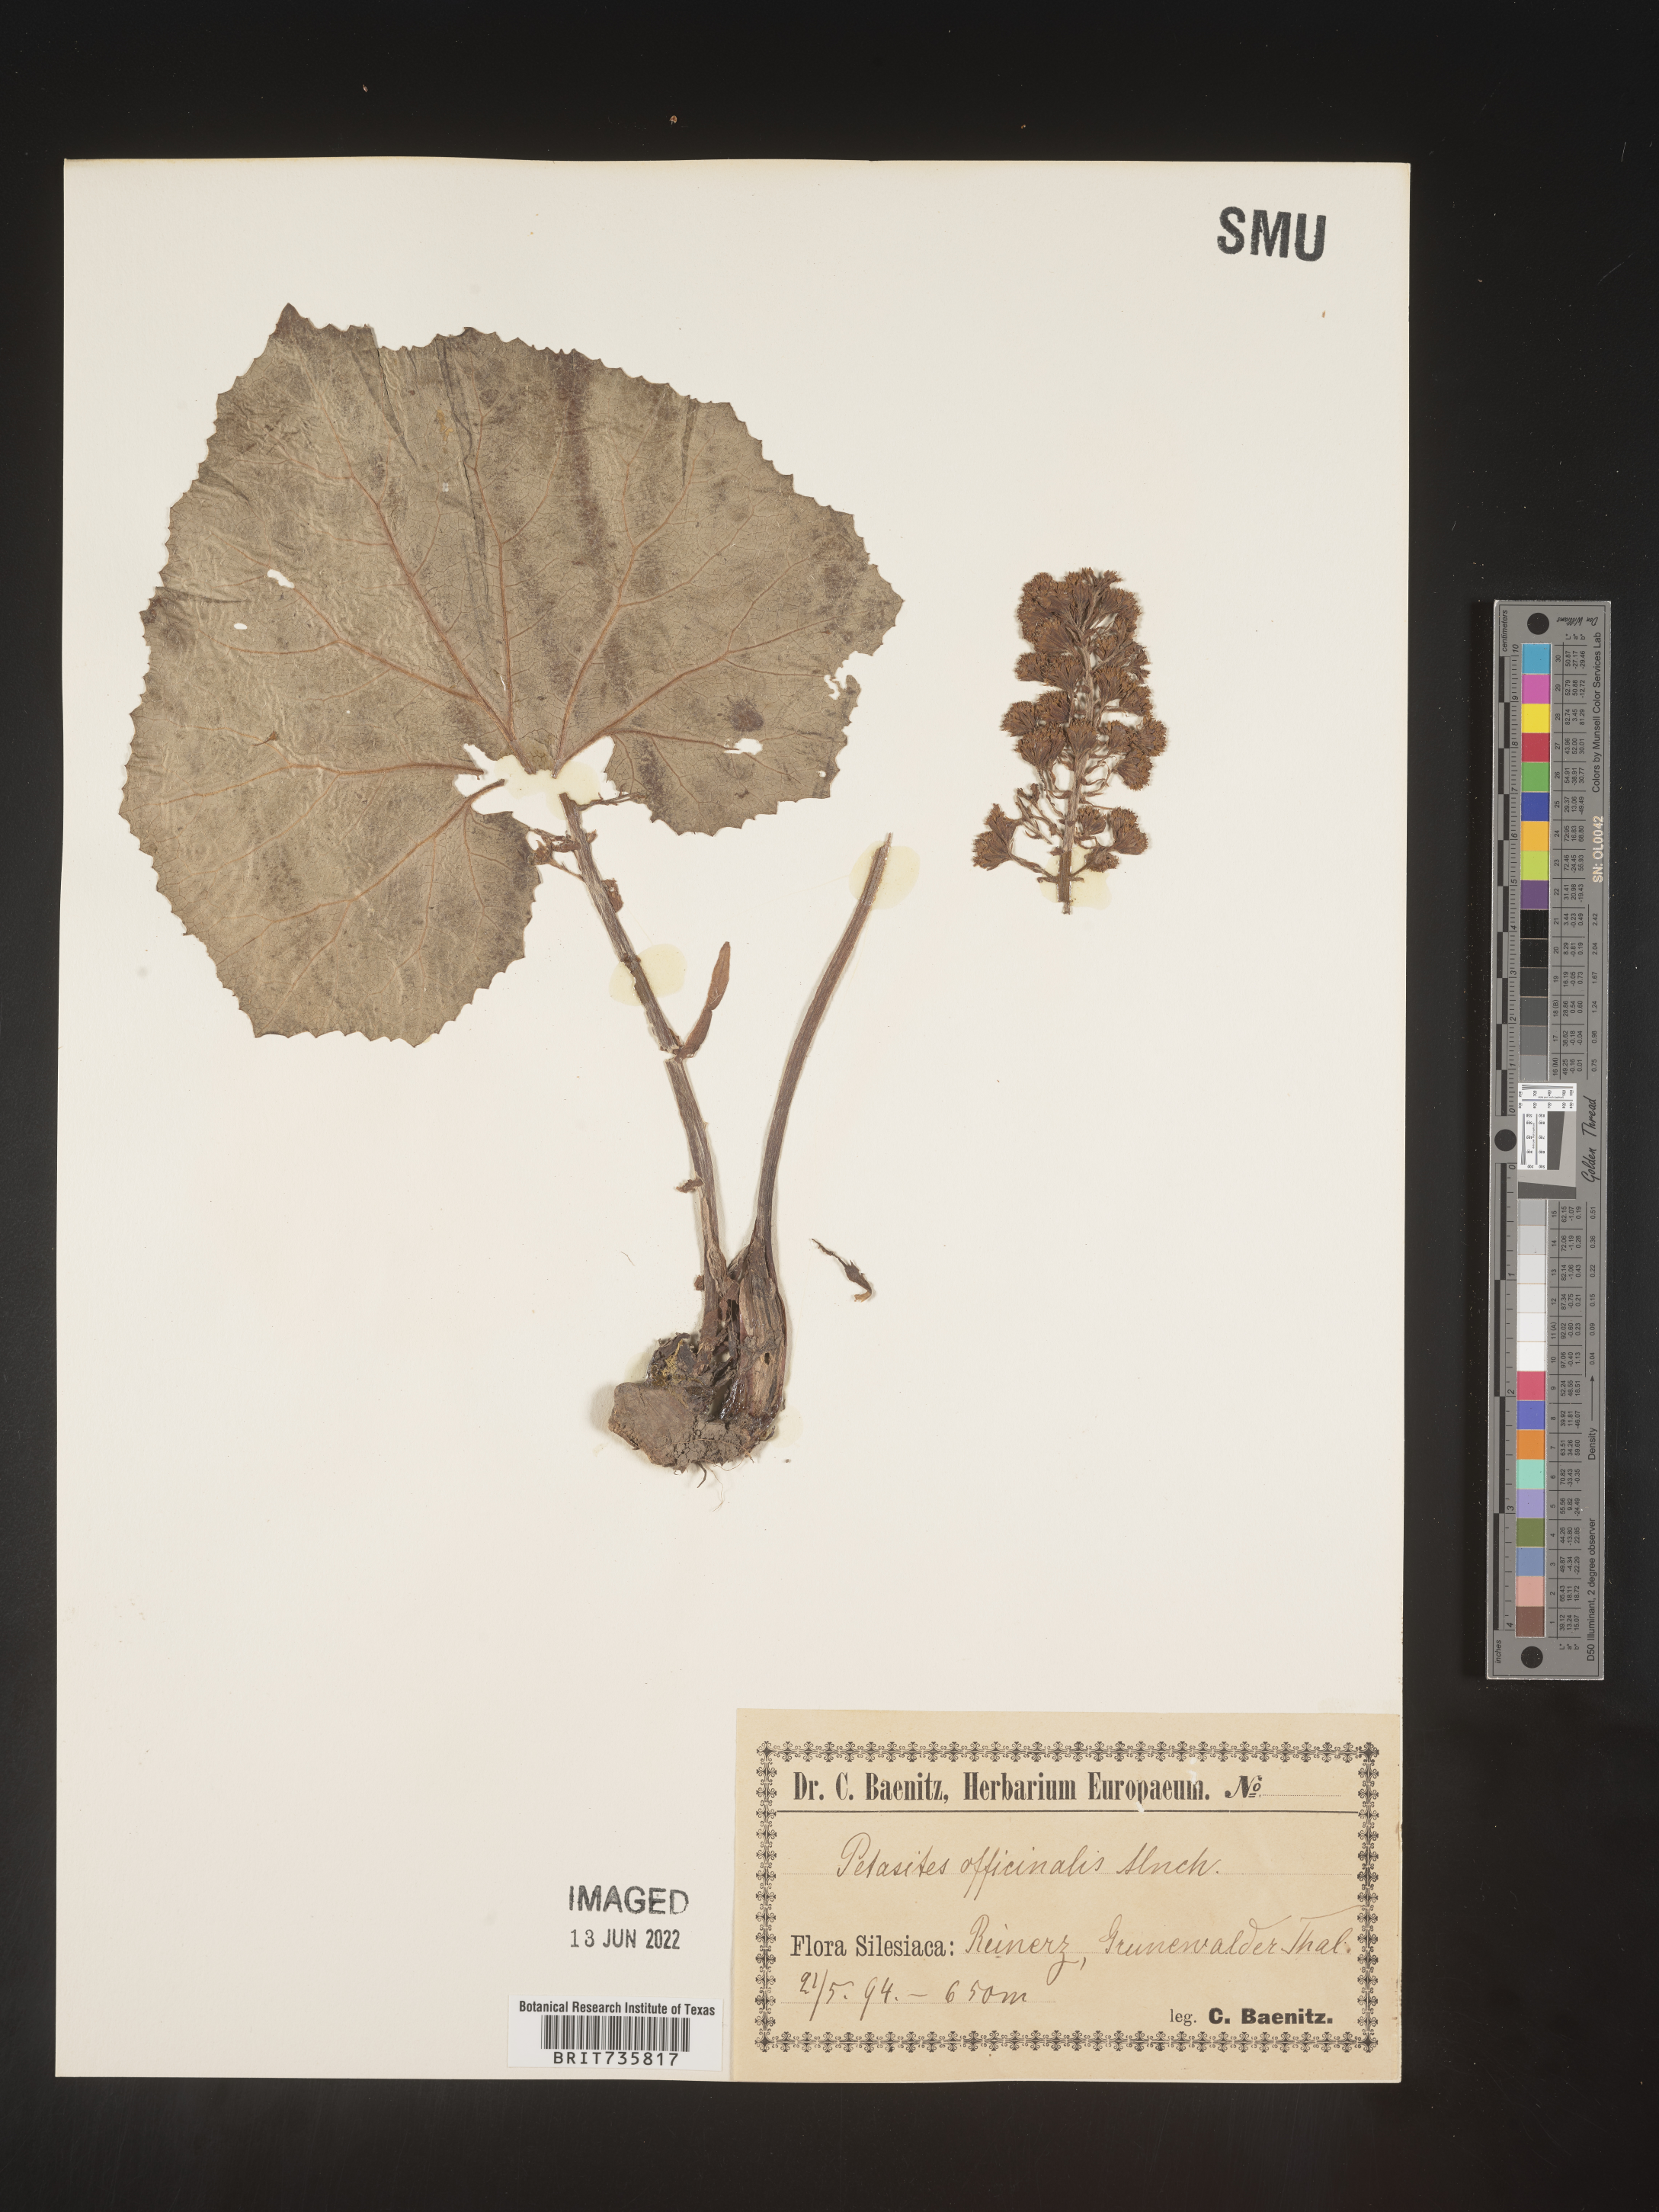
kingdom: Plantae
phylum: Tracheophyta
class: Magnoliopsida
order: Asterales
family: Asteraceae
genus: Petasites
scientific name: Petasites
